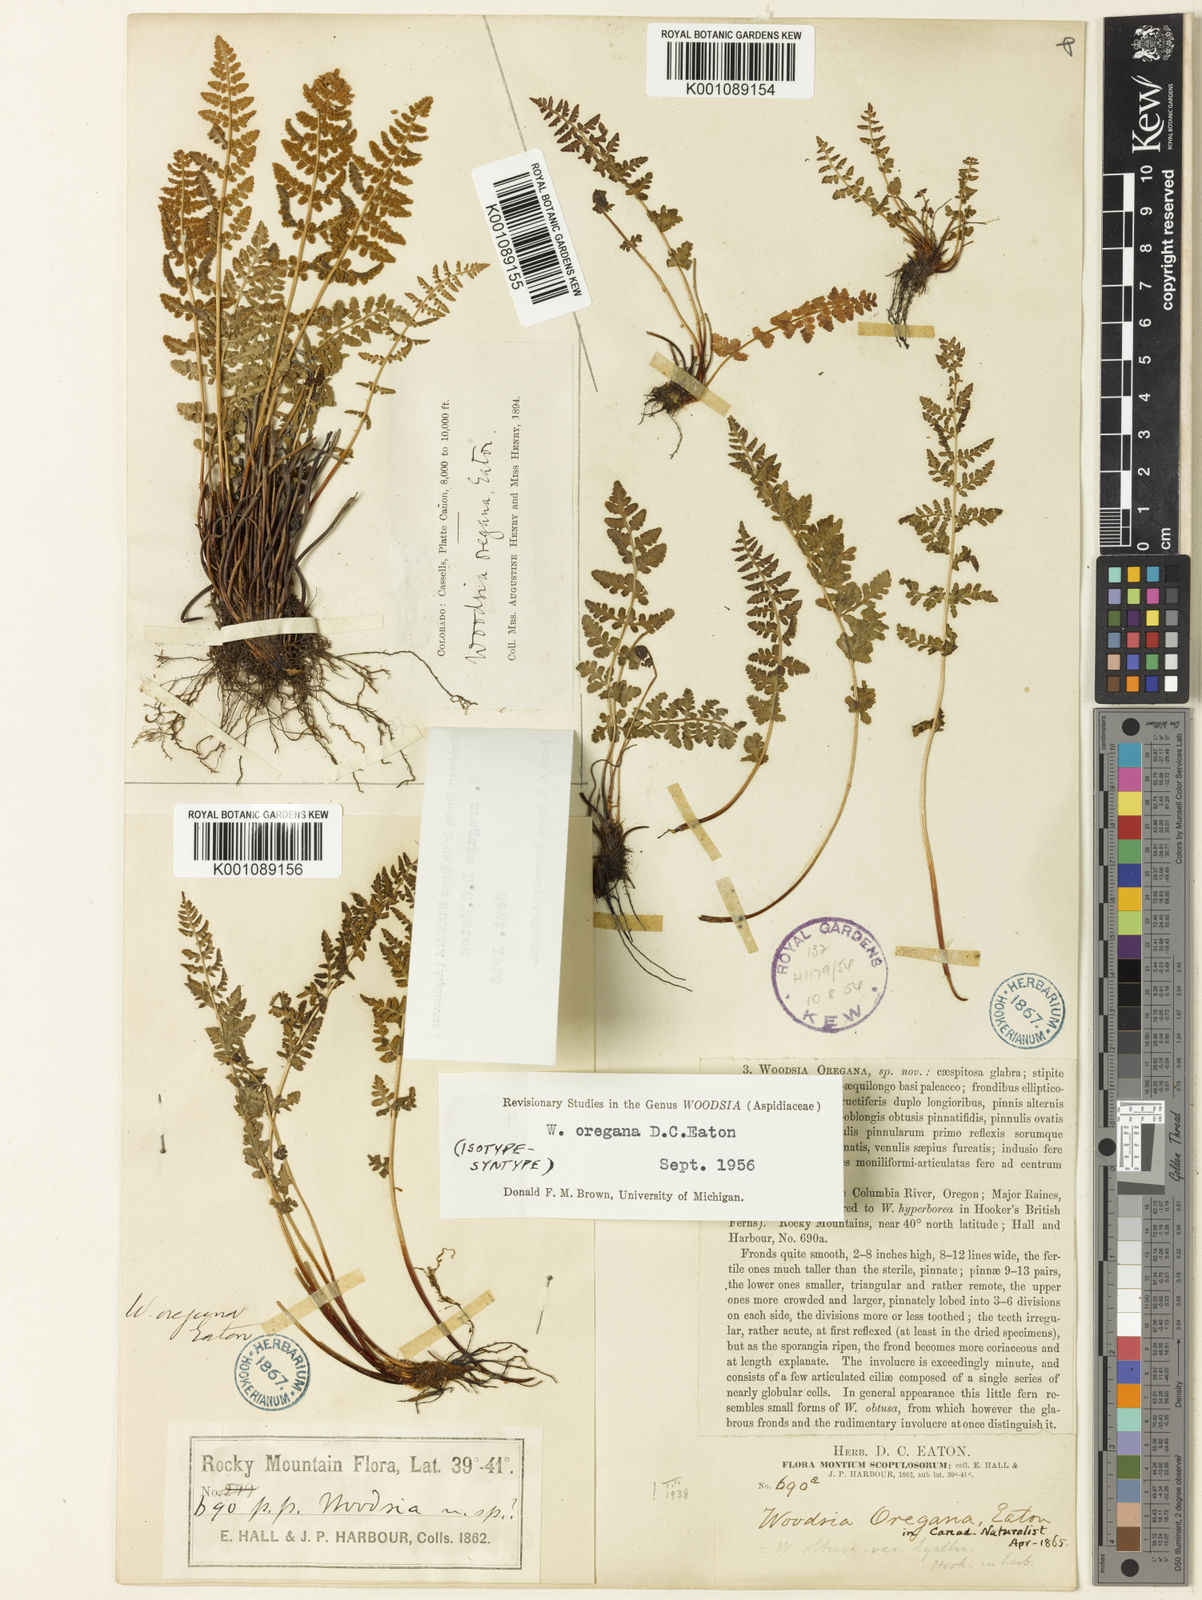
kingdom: Plantae
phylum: Tracheophyta
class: Polypodiopsida
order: Polypodiales
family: Woodsiaceae
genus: Physematium
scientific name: Physematium oreganum
